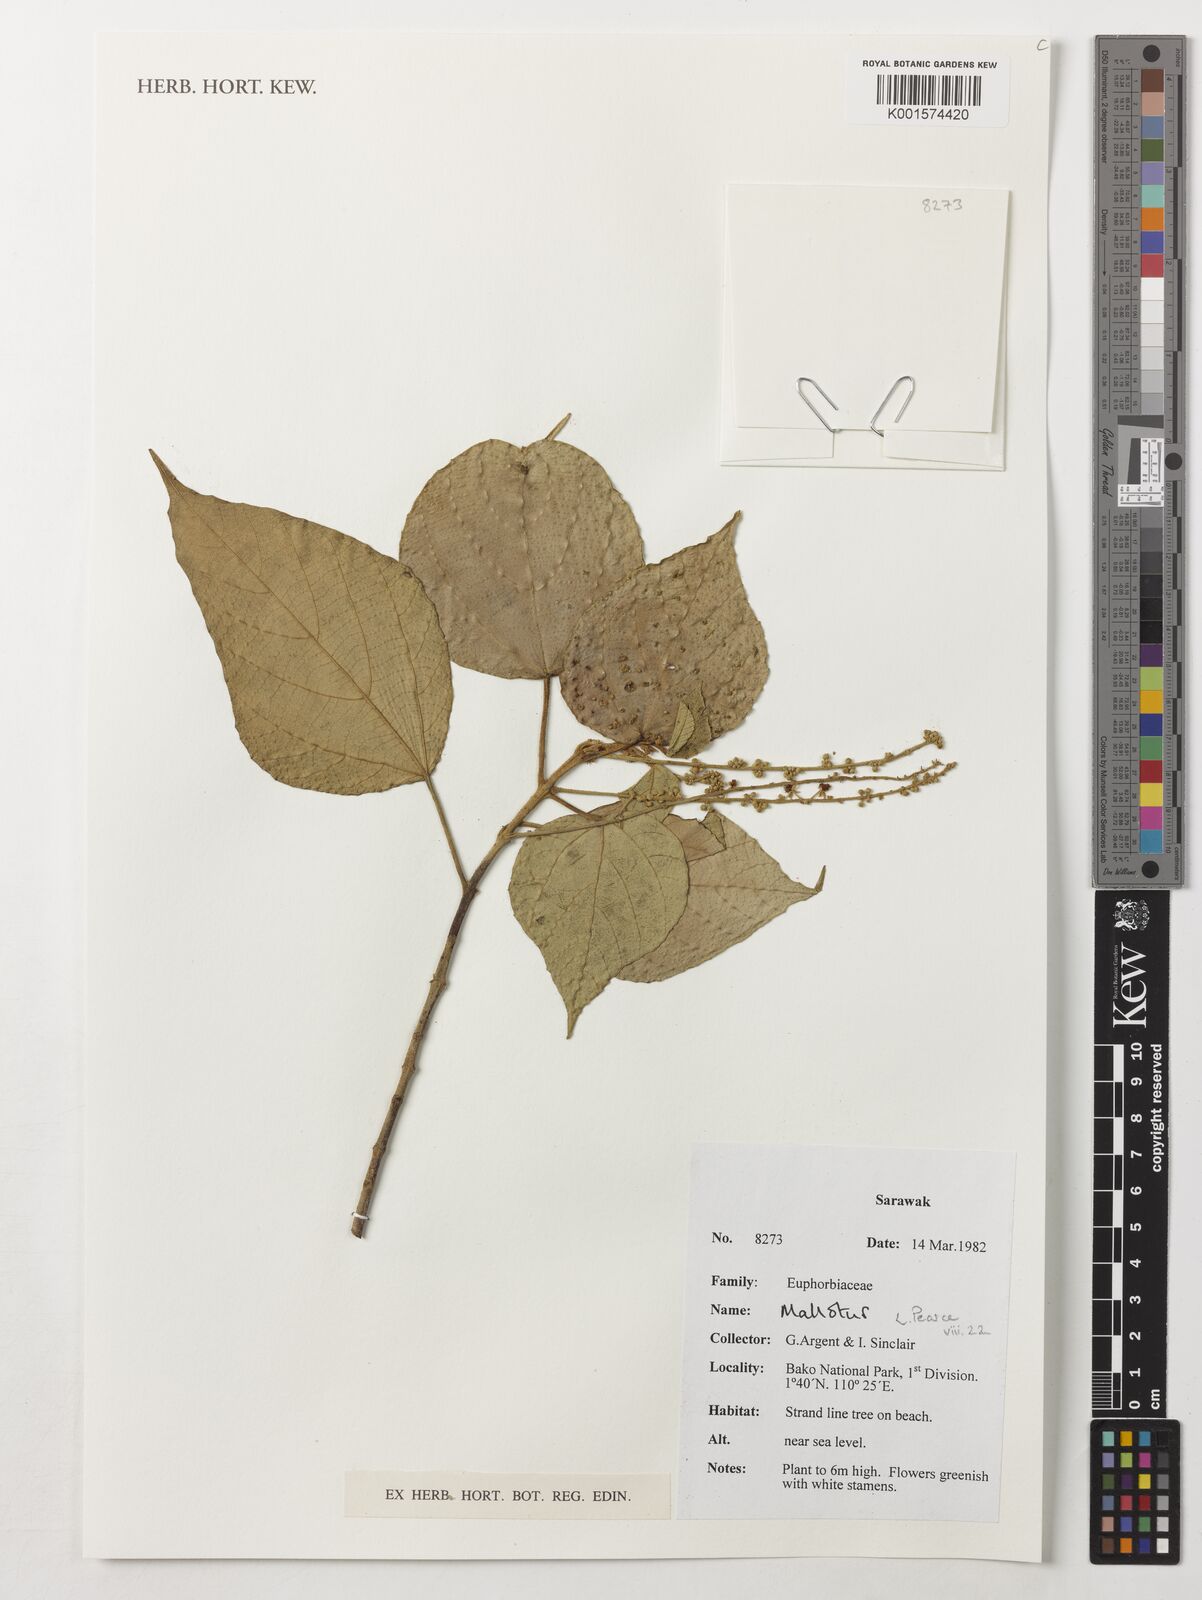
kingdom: Plantae
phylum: Tracheophyta
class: Magnoliopsida
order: Malpighiales
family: Euphorbiaceae
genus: Mallotus
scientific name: Mallotus
